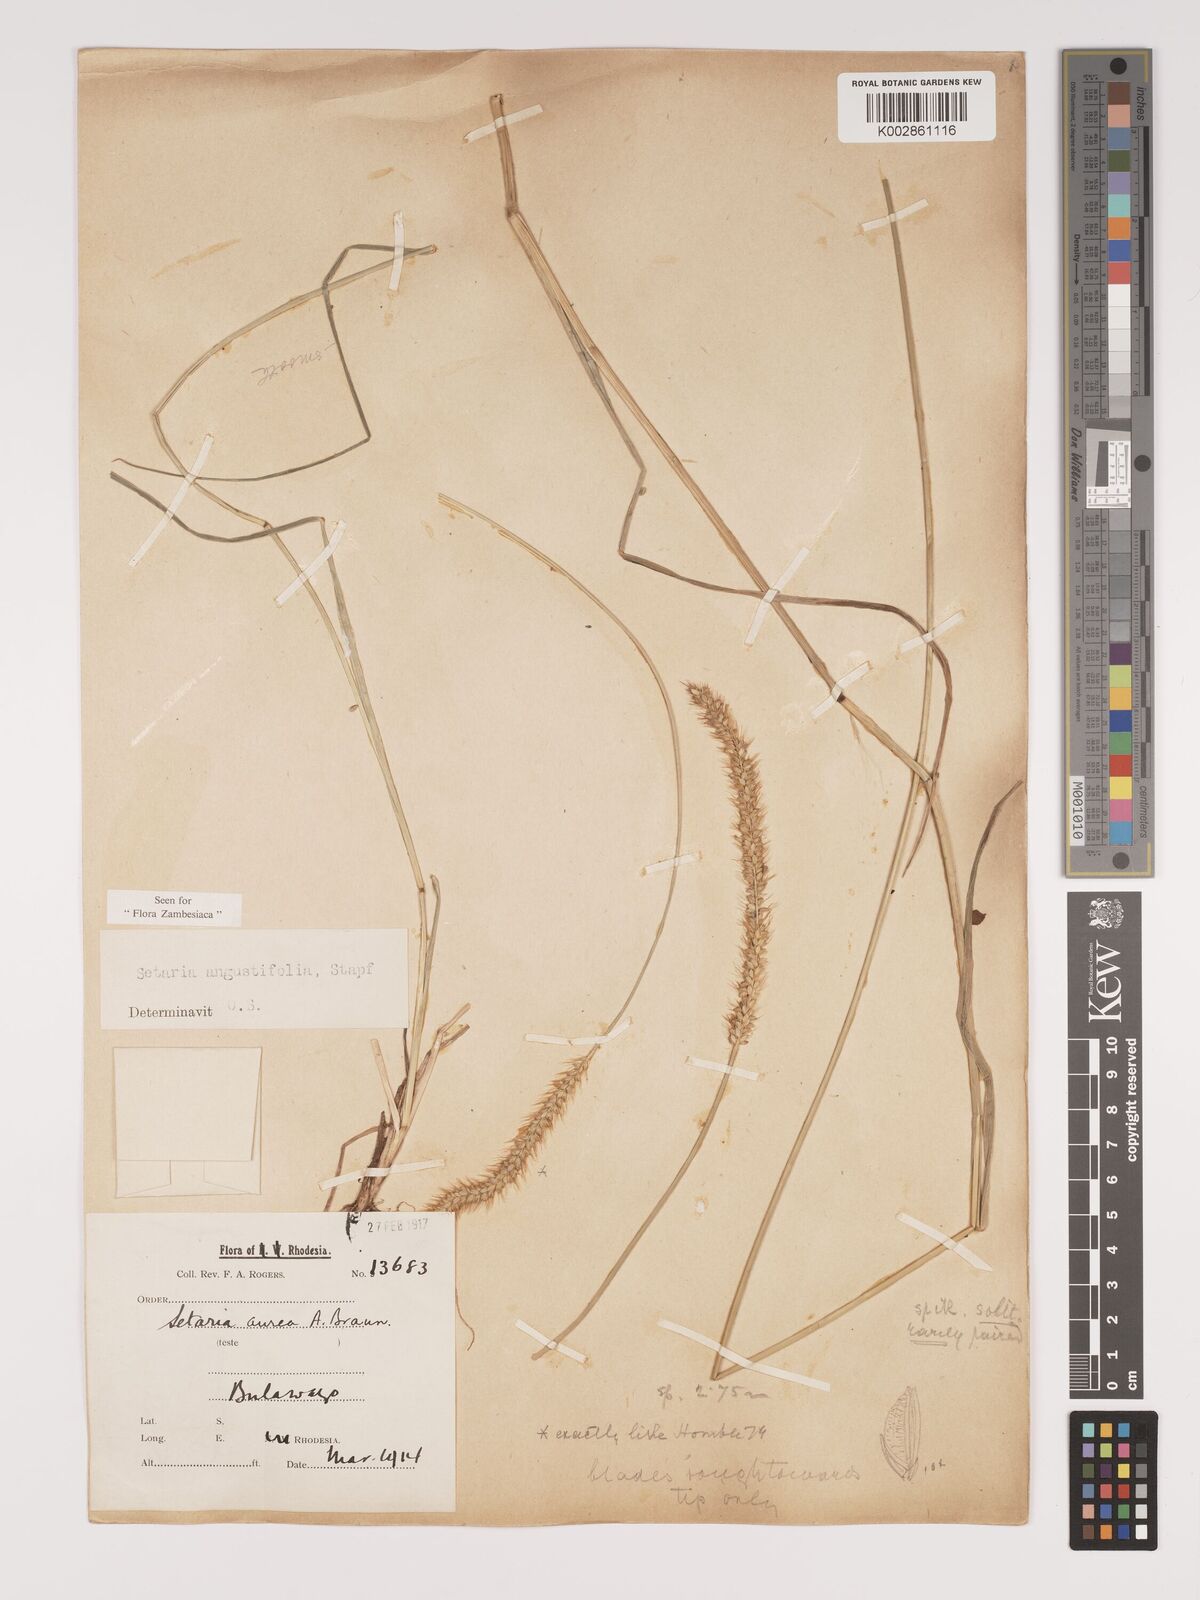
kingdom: Plantae
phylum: Tracheophyta
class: Liliopsida
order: Poales
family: Poaceae
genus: Setaria
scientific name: Setaria sphacelata
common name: African bristlegrass
